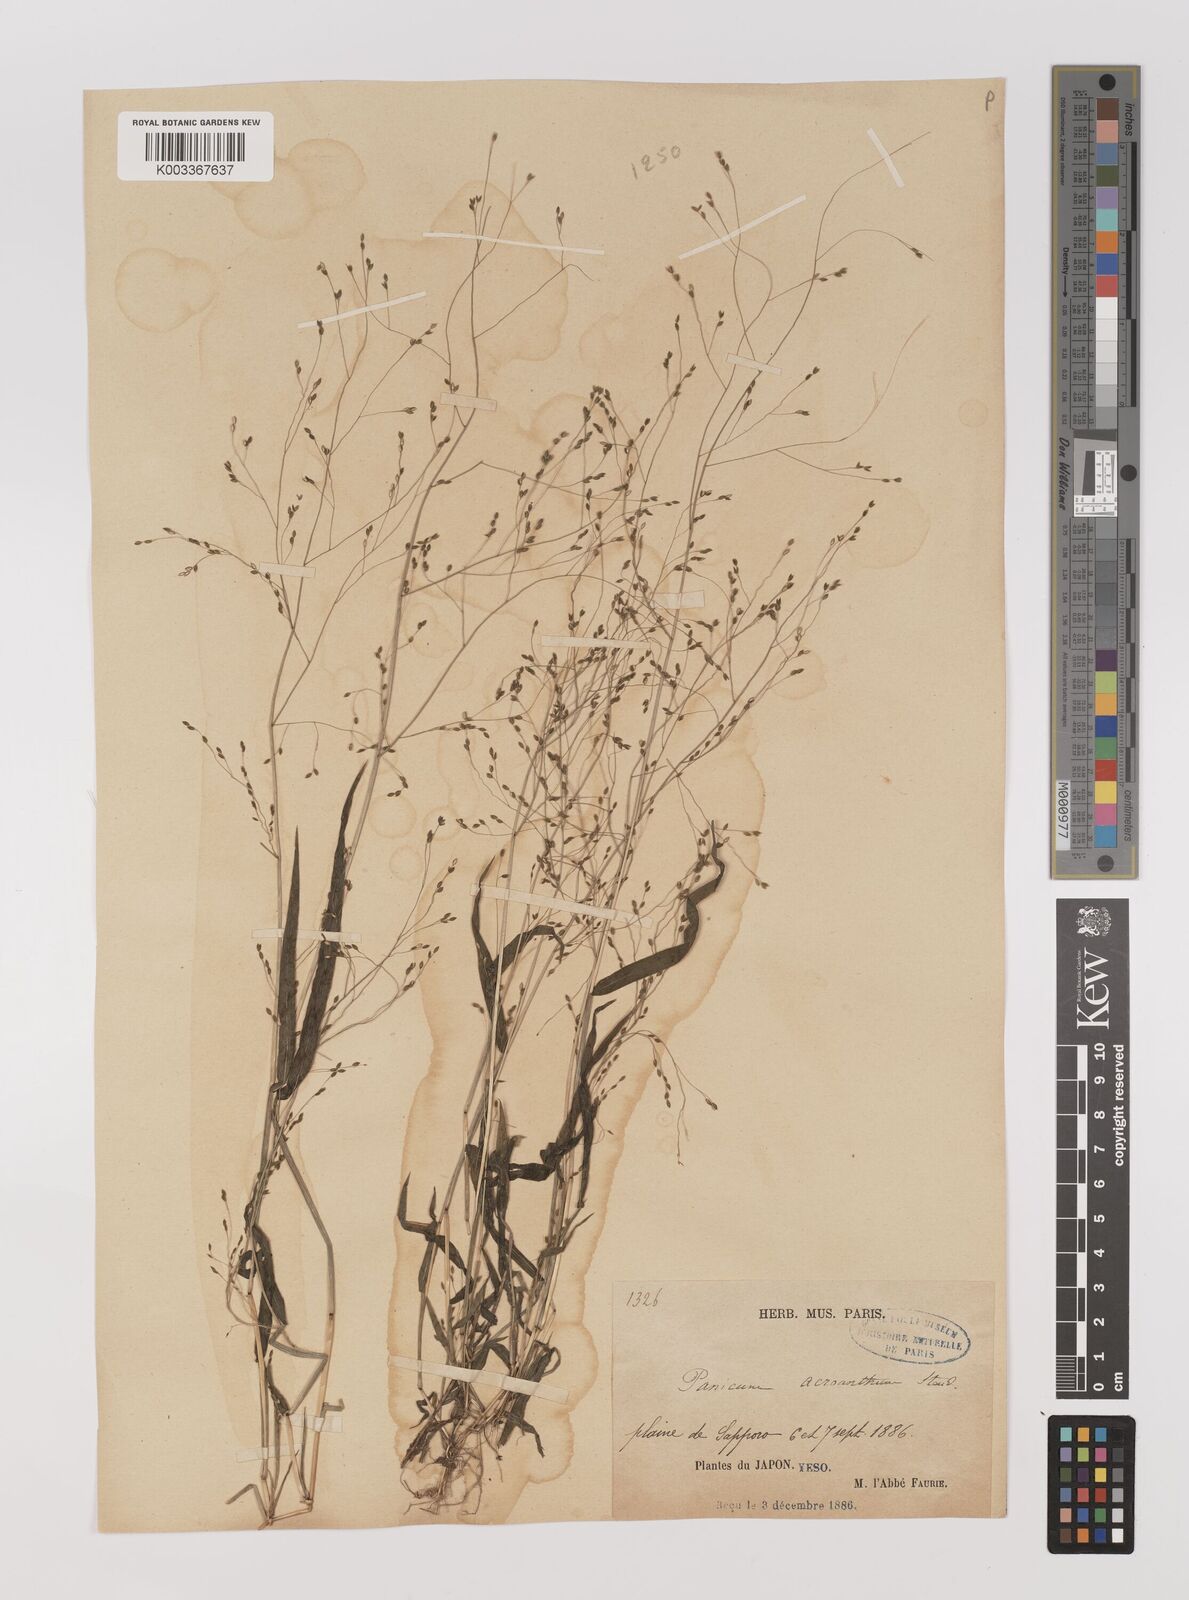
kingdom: Plantae
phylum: Tracheophyta
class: Liliopsida
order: Poales
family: Poaceae
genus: Panicum
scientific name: Panicum bisulcatum
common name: Japanese panicgrass
